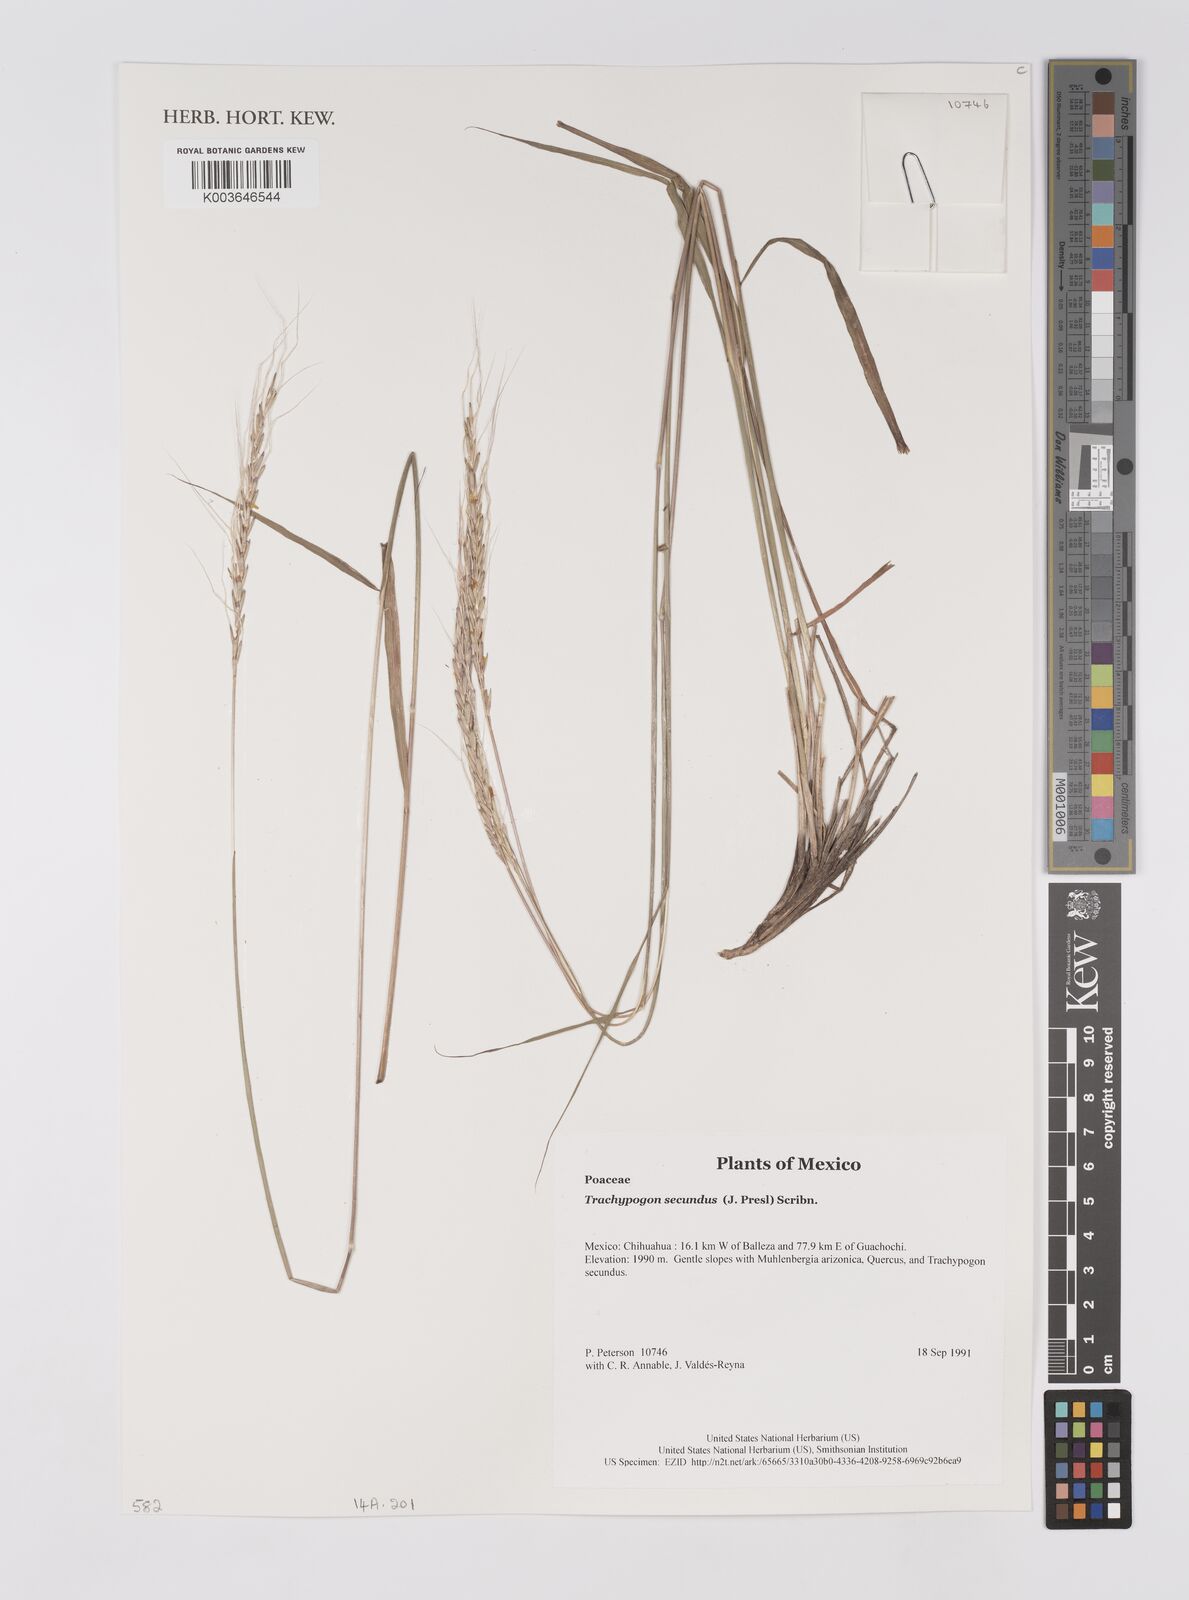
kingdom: Plantae
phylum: Tracheophyta
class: Liliopsida
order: Poales
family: Poaceae
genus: Trachypogon
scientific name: Trachypogon spicatus
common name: Crinkle-awn
